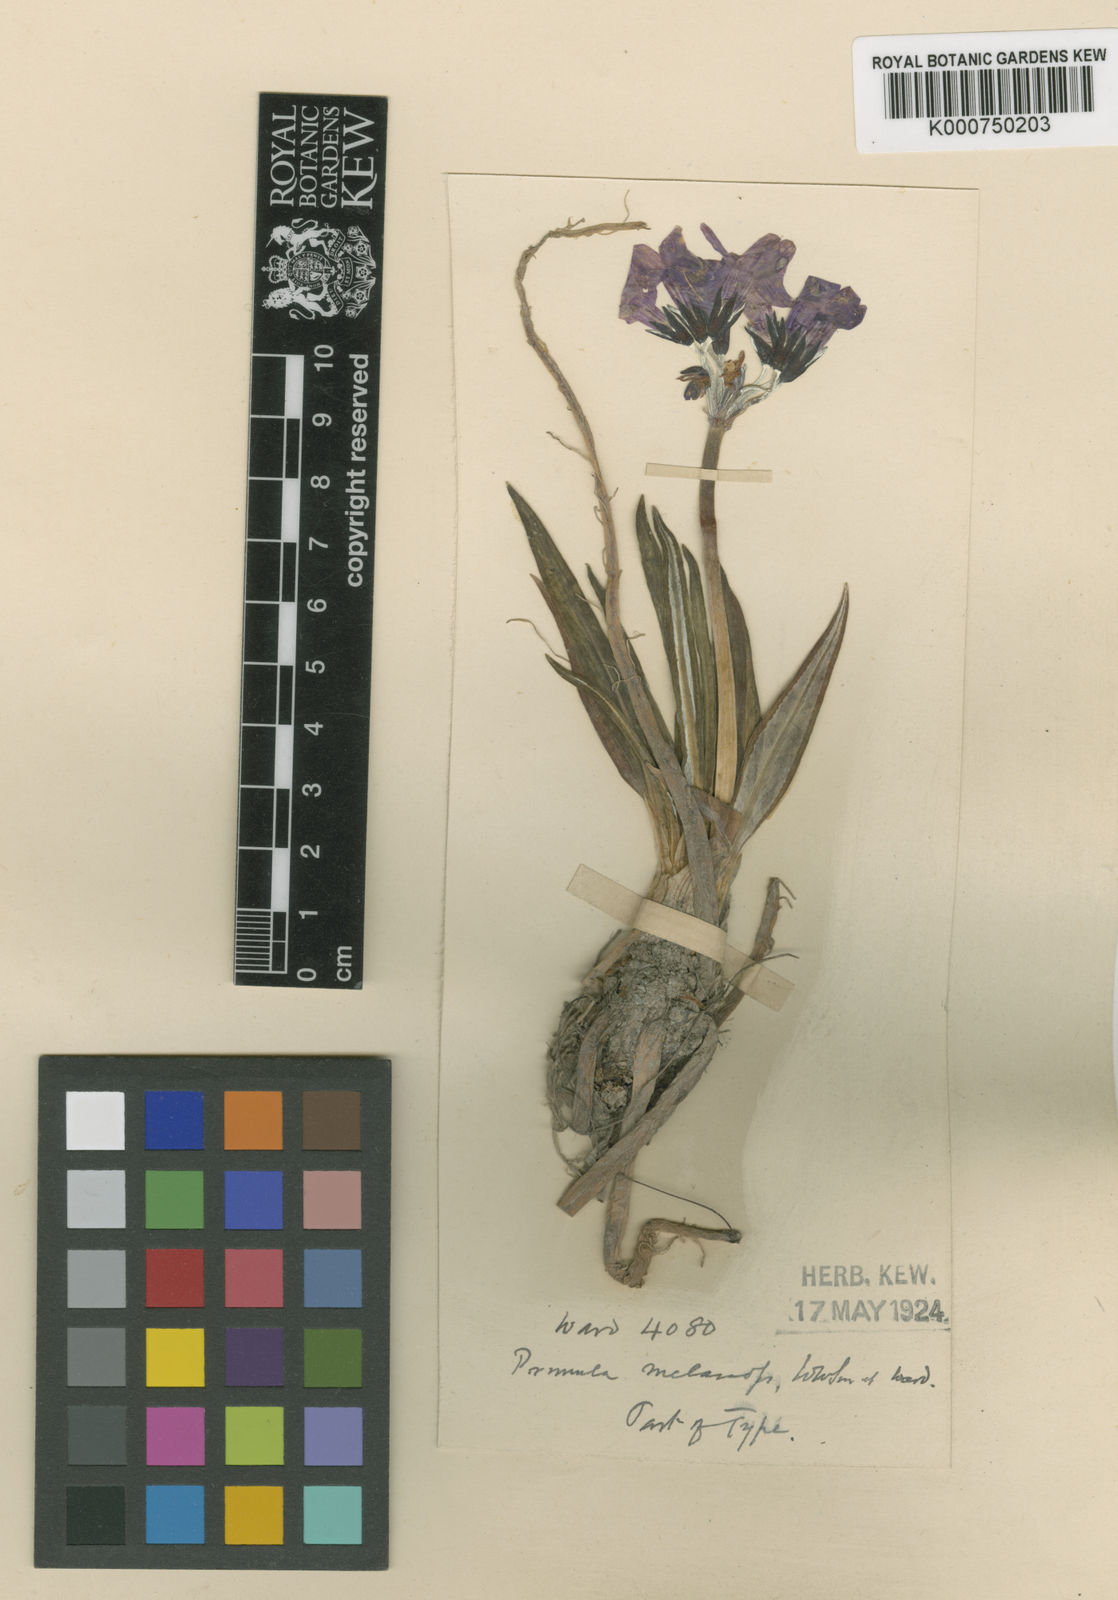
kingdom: Plantae
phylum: Tracheophyta
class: Magnoliopsida
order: Ericales
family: Primulaceae
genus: Primula
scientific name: Primula chionantha
